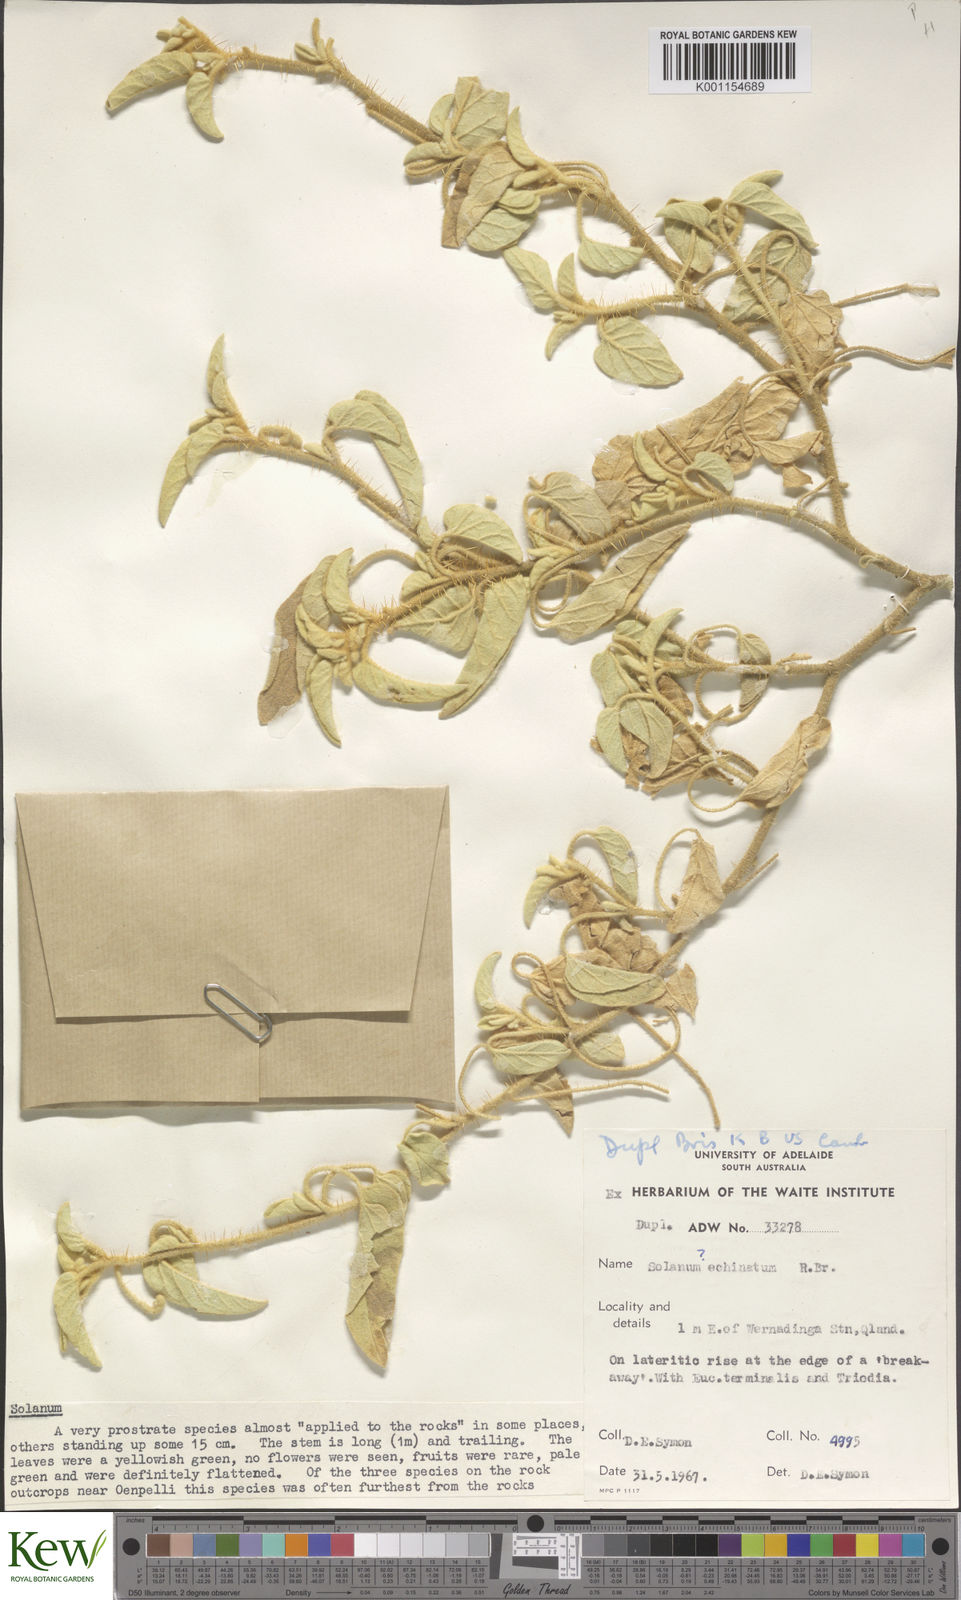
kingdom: Plantae
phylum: Tracheophyta
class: Magnoliopsida
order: Solanales
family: Solanaceae
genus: Solanum
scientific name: Solanum echinatum
